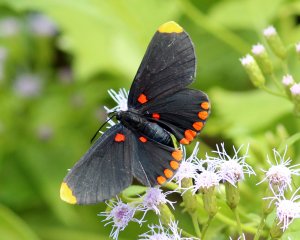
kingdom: Animalia
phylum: Arthropoda
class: Insecta
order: Lepidoptera
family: Lycaenidae
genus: Melanis
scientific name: Melanis pixe
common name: Red-bordered Pixie
